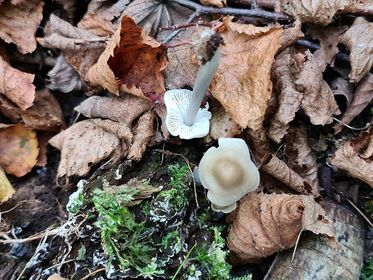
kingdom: Fungi
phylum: Basidiomycota
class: Agaricomycetes
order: Agaricales
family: Mycenaceae
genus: Mycena
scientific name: Mycena galericulata
